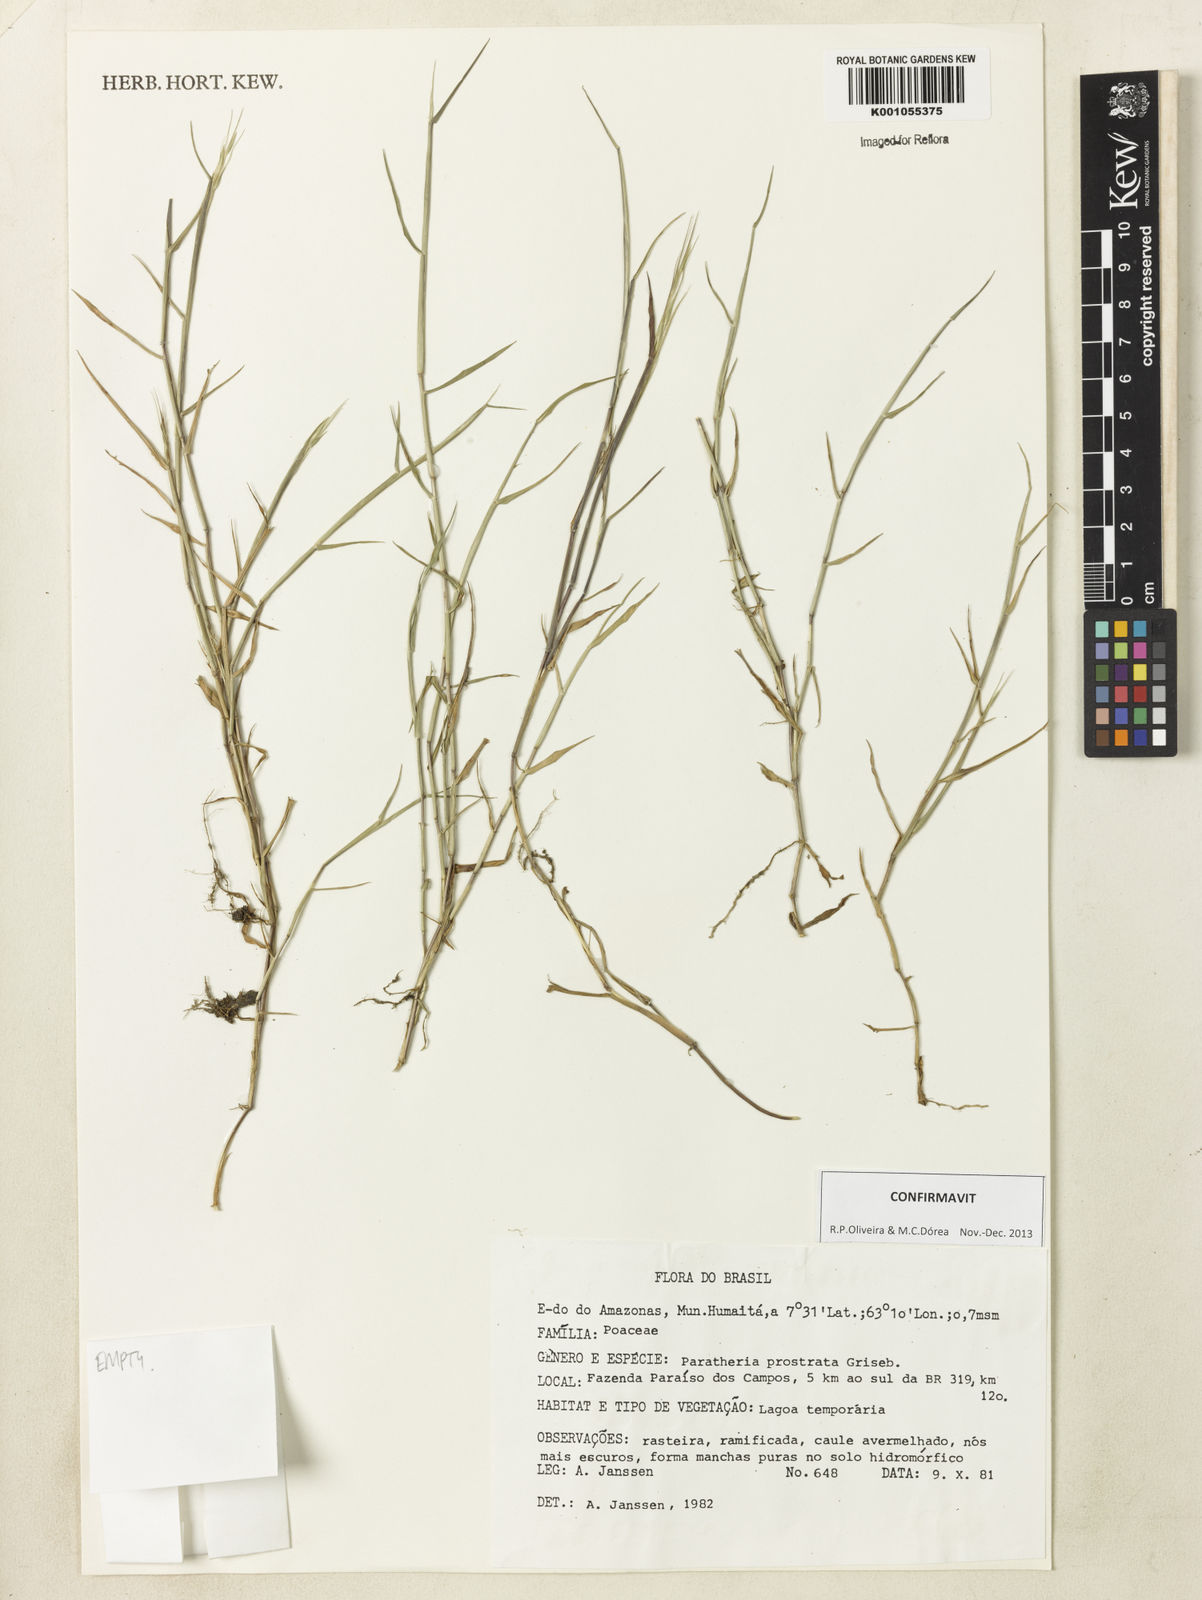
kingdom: Plantae
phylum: Tracheophyta
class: Liliopsida
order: Poales
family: Poaceae
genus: Paratheria
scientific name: Paratheria prostrata
